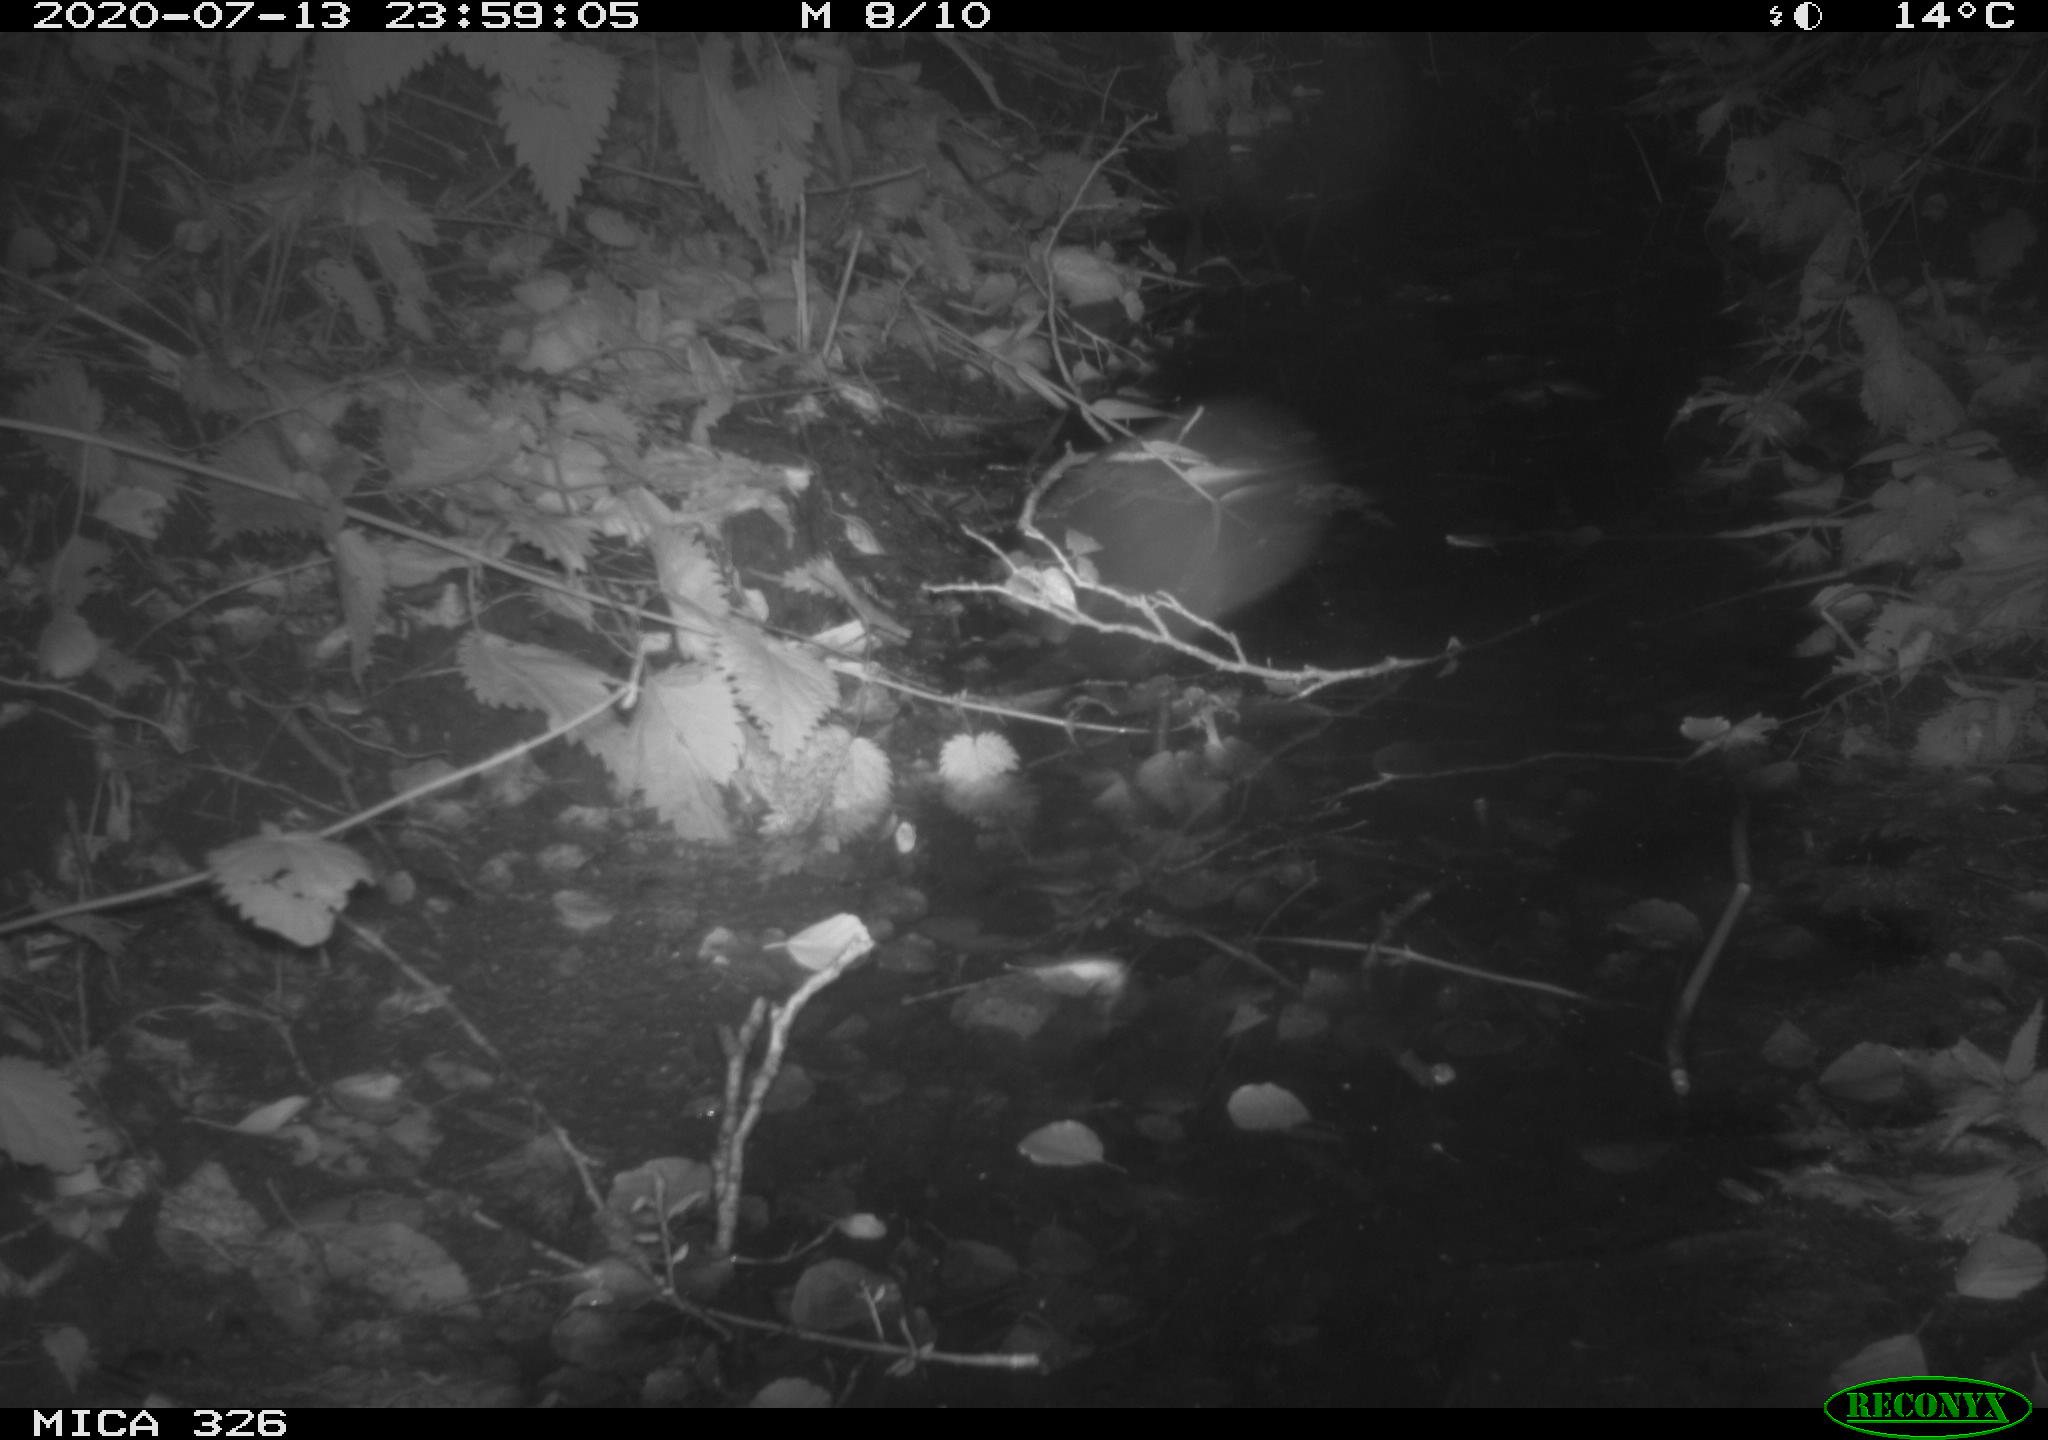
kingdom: Animalia
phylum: Chordata
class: Mammalia
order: Rodentia
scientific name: Rodentia
